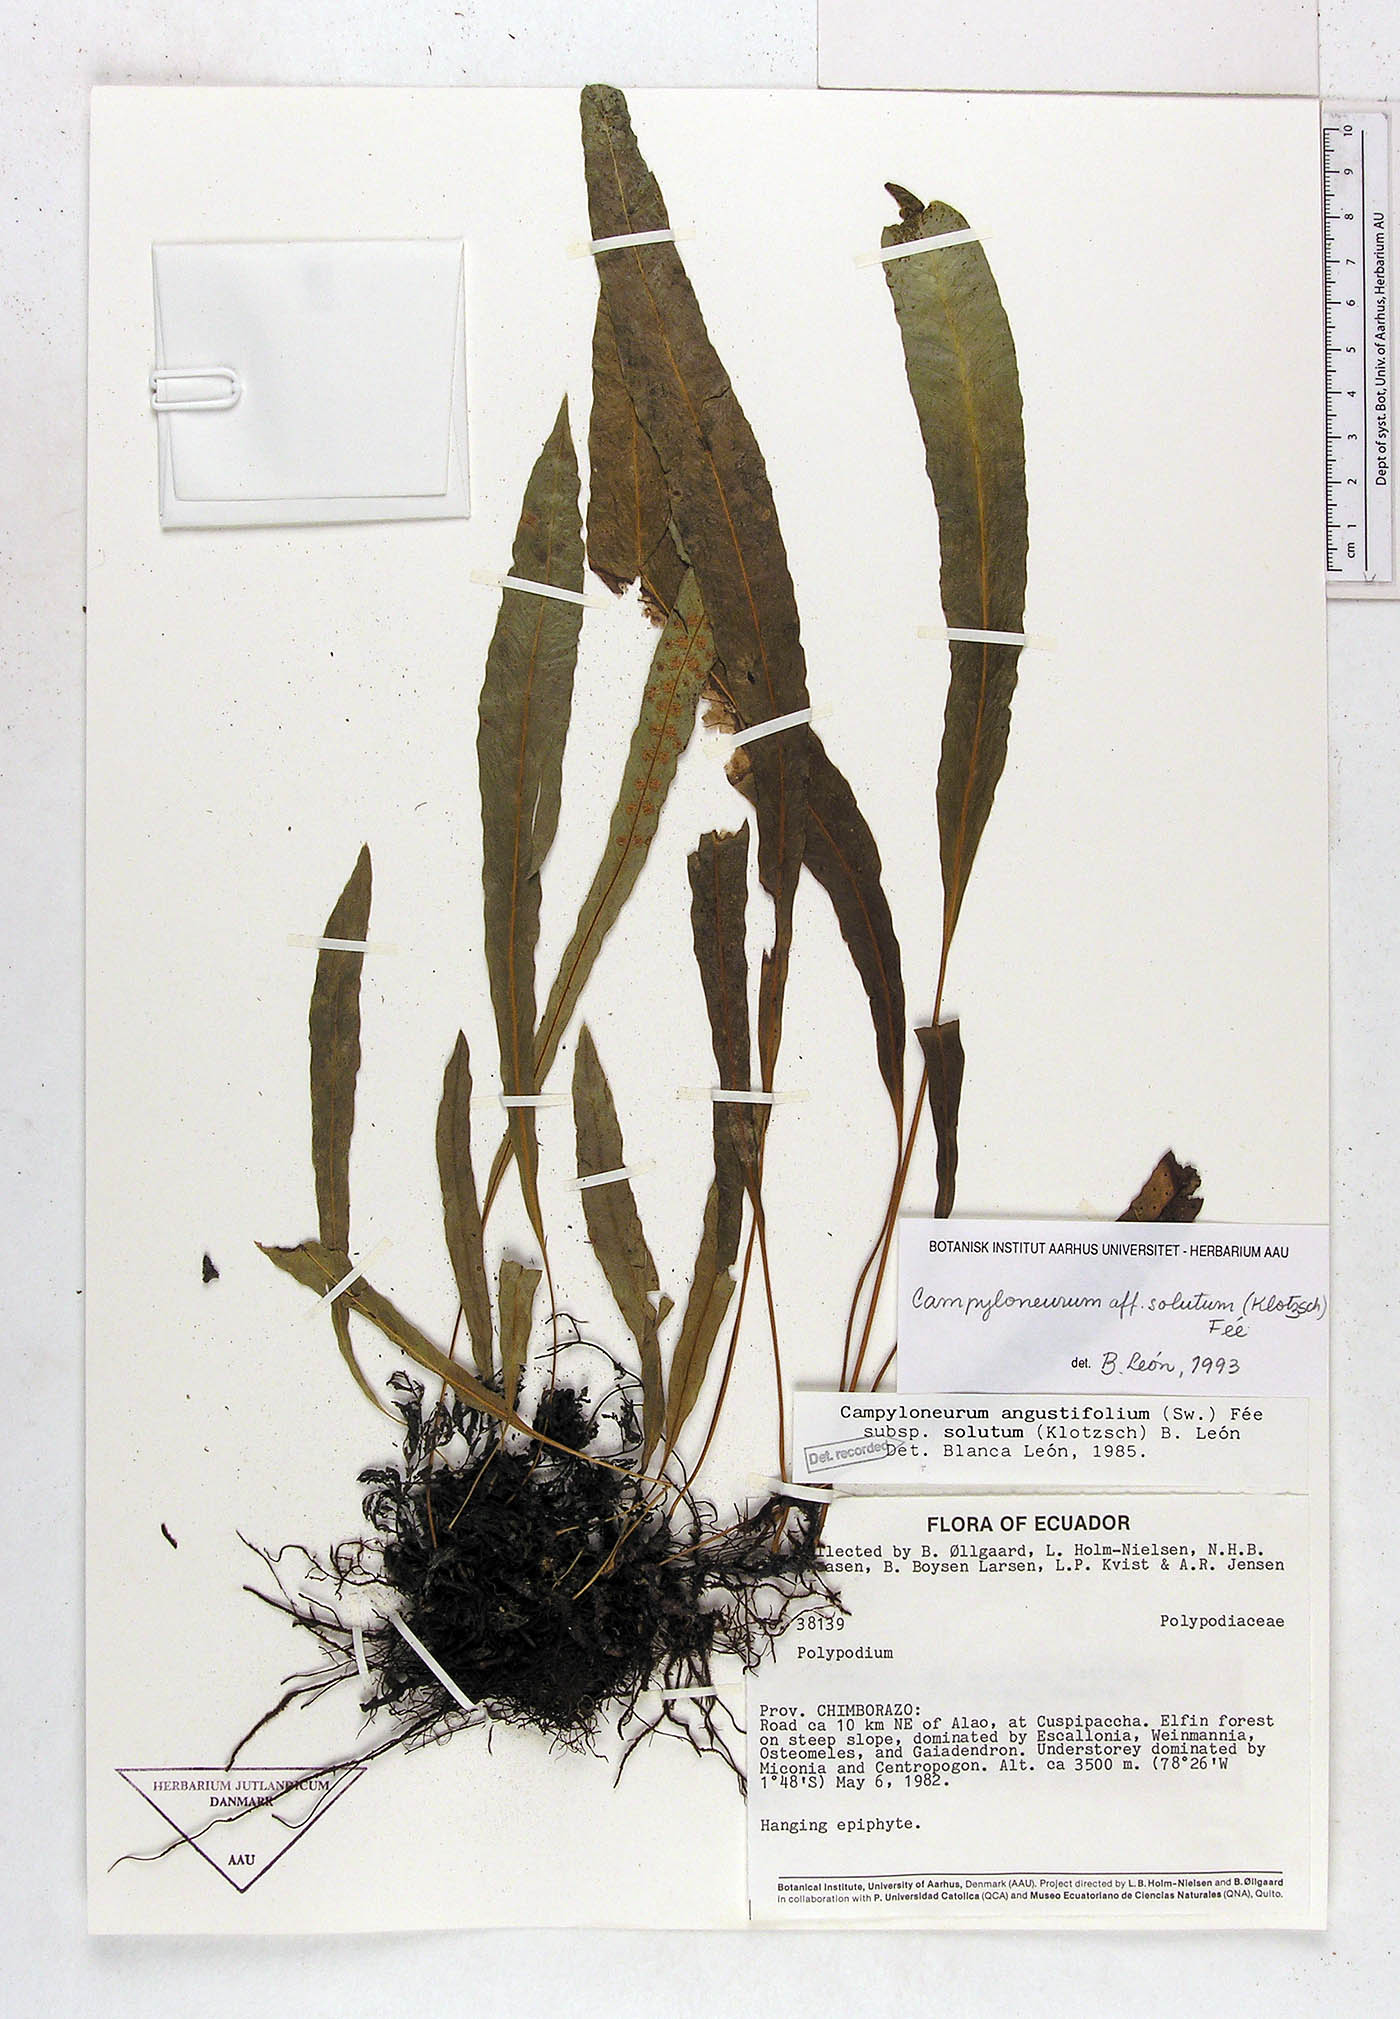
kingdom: Plantae
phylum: Tracheophyta
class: Polypodiopsida
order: Polypodiales
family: Polypodiaceae
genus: Campyloneurum
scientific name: Campyloneurum solutum
